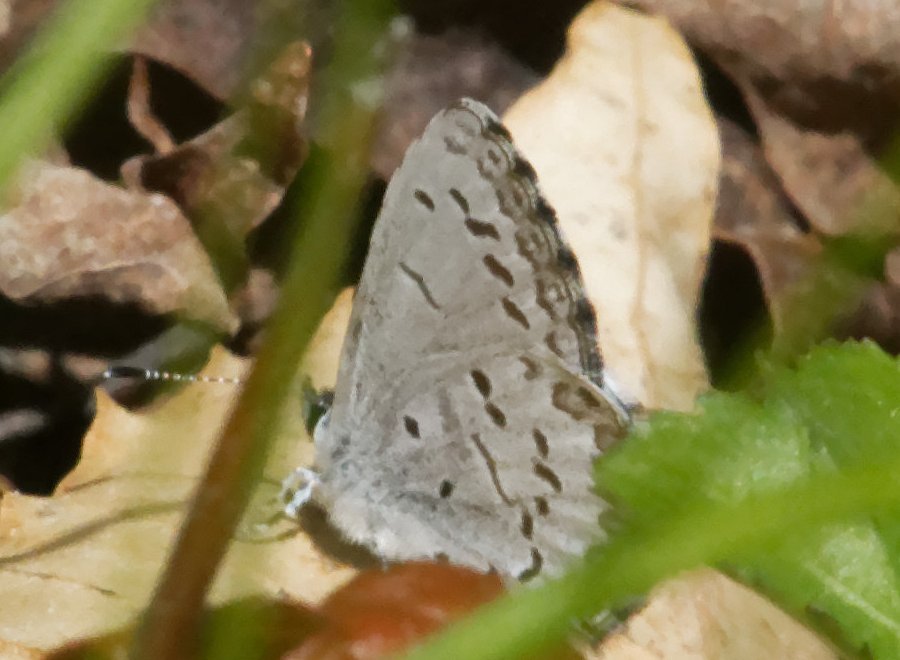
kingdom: Animalia
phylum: Arthropoda
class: Insecta
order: Lepidoptera
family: Lycaenidae
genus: Celastrina
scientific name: Celastrina
